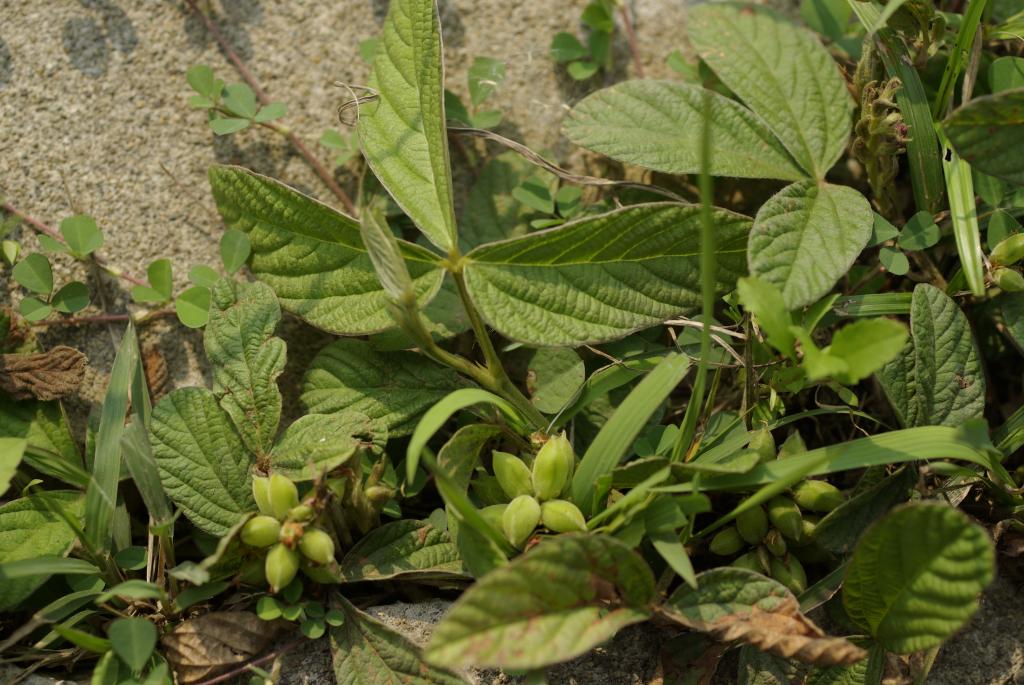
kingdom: Plantae
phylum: Tracheophyta
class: Magnoliopsida
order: Fabales
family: Fabaceae
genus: Flemingia
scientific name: Flemingia macrophylla
